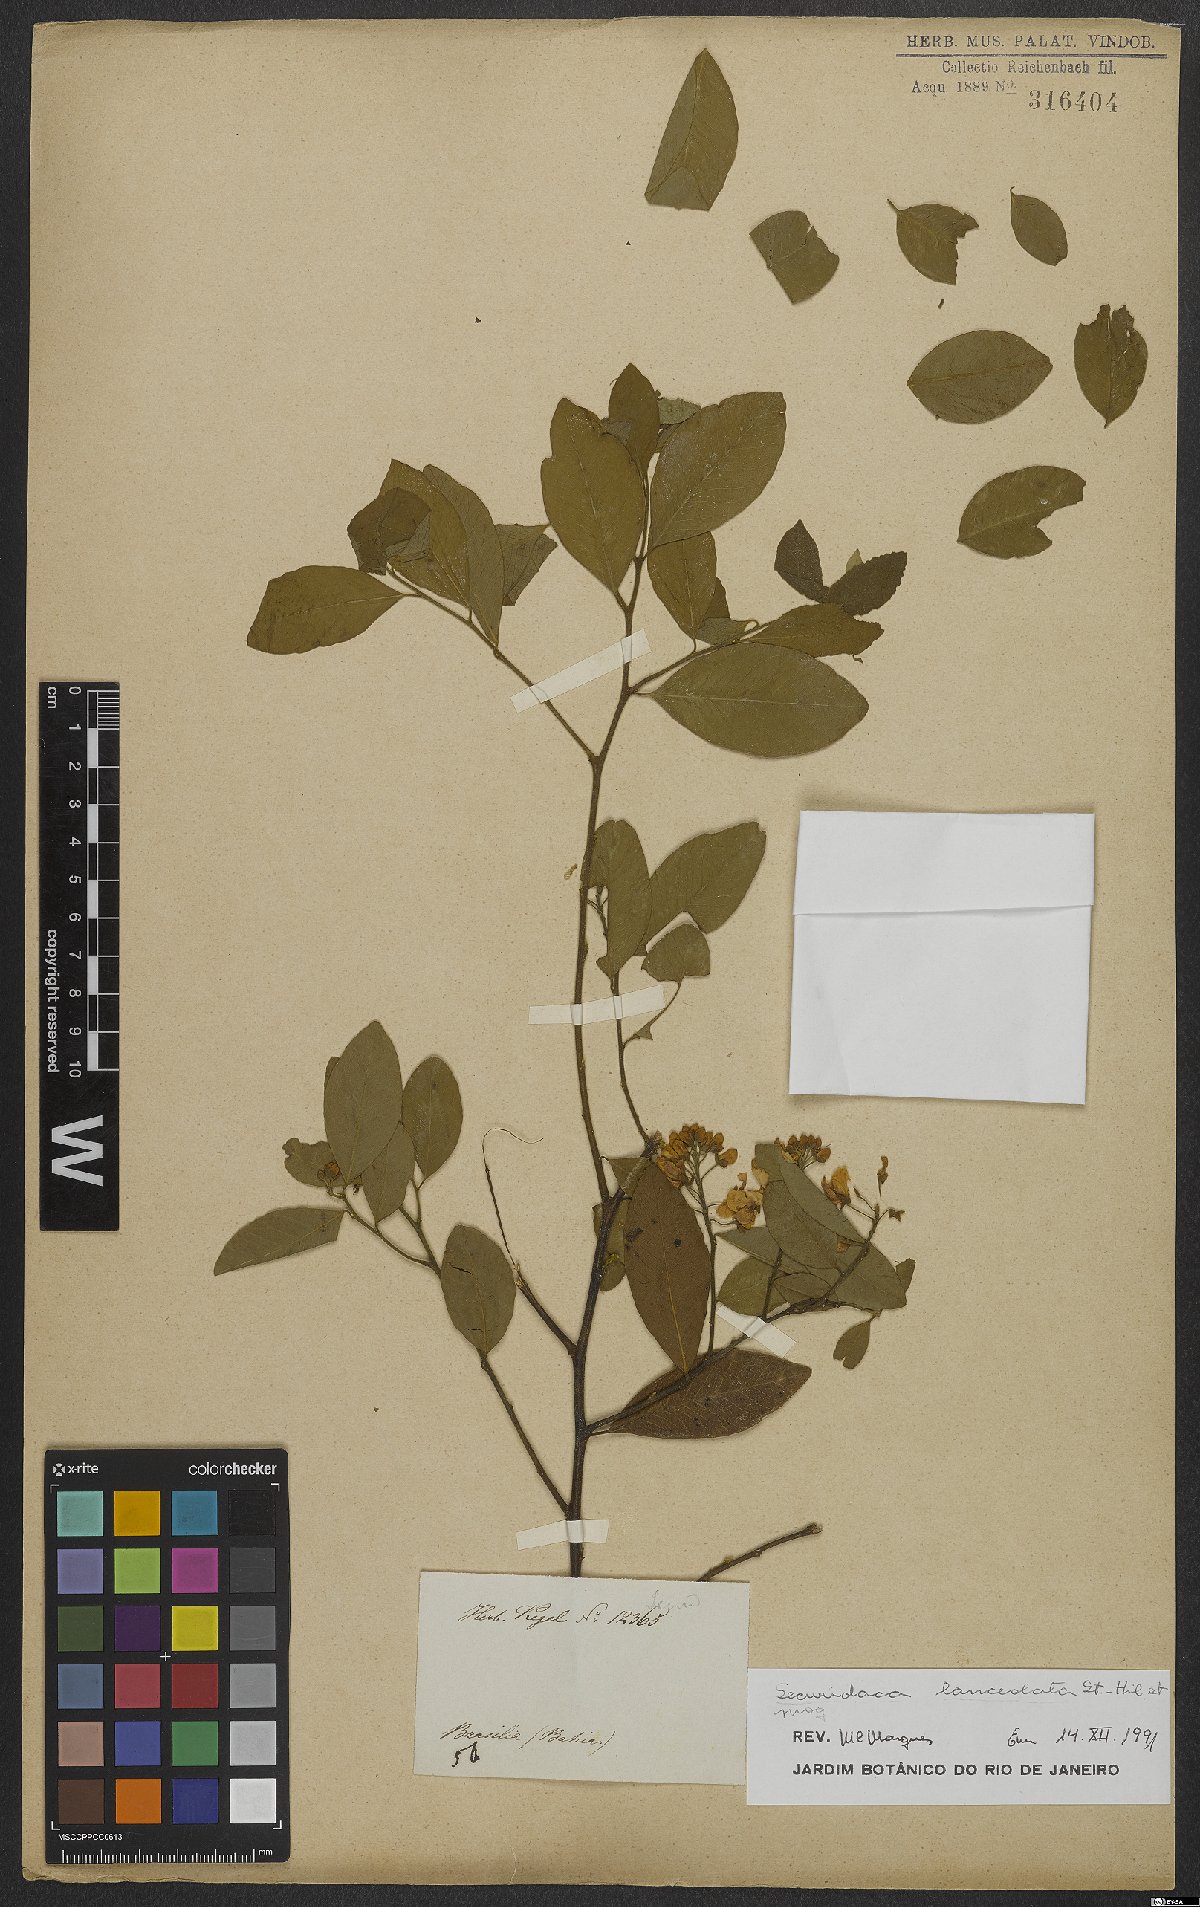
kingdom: Plantae
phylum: Tracheophyta
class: Magnoliopsida
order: Fabales
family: Polygalaceae
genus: Securidaca
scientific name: Securidaca lanceolata
